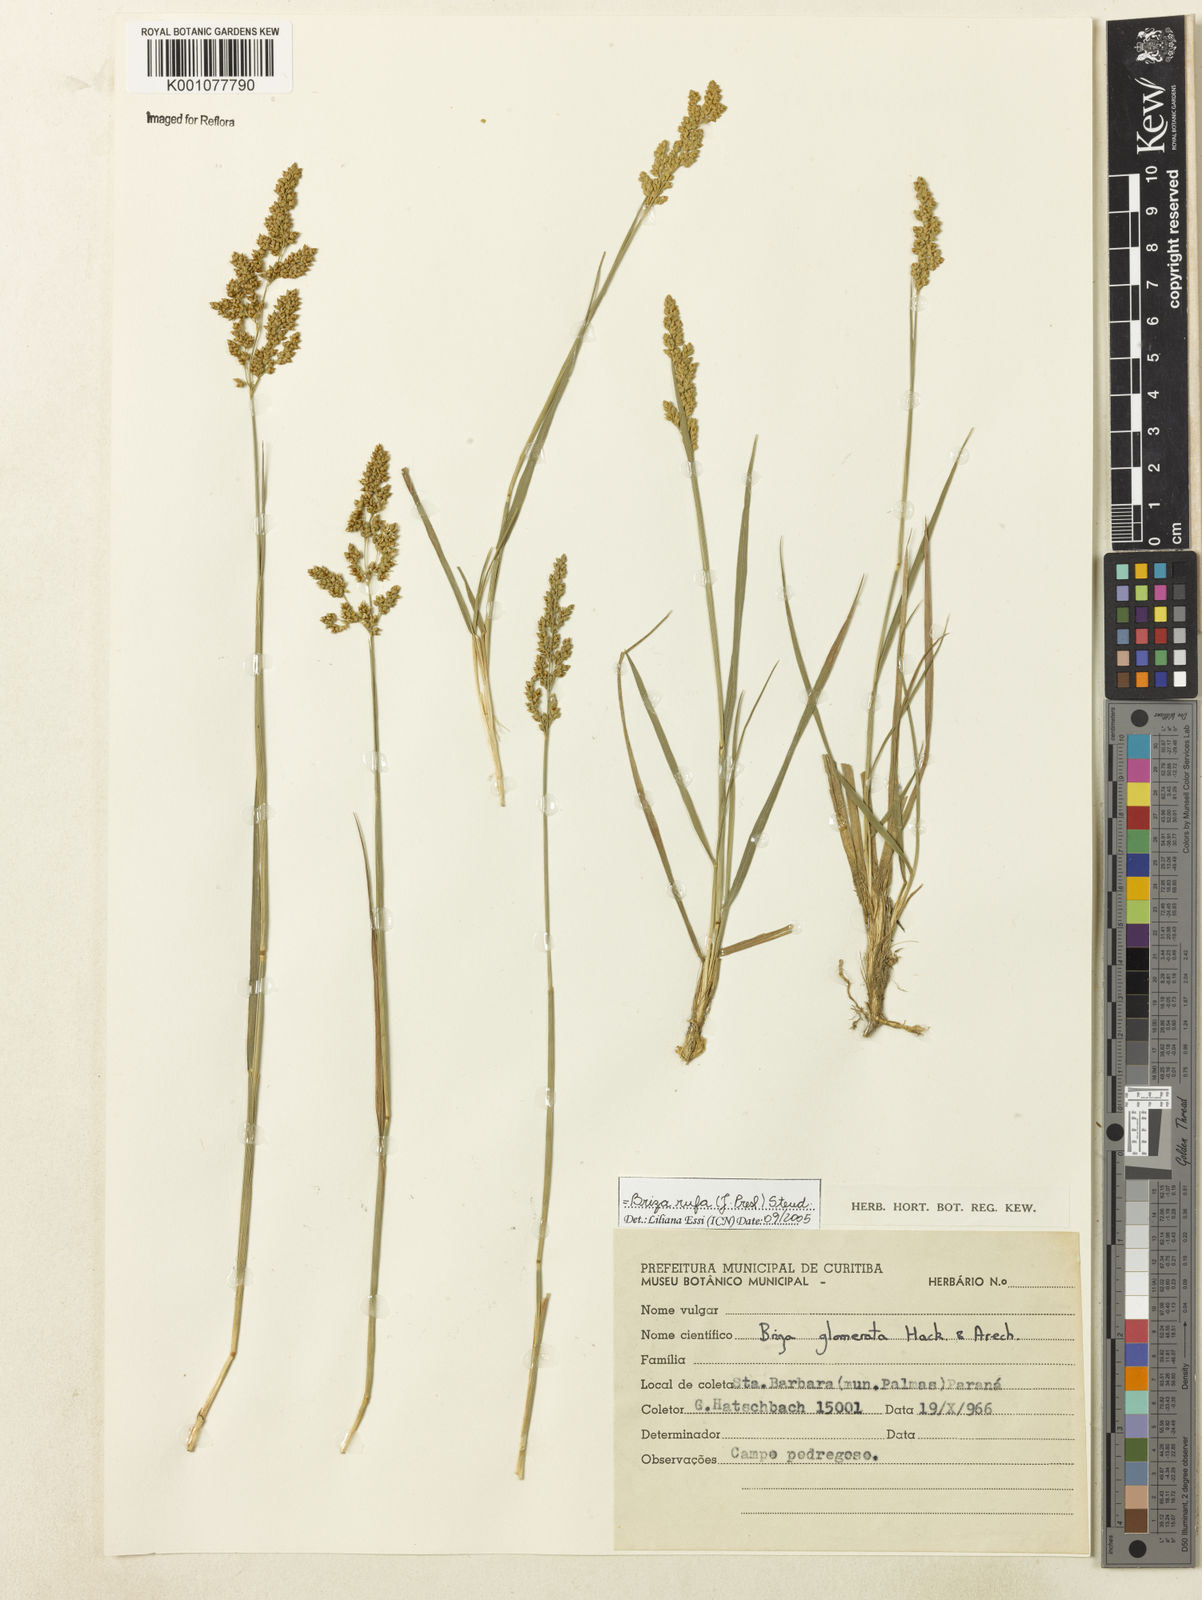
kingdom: Plantae
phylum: Tracheophyta
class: Liliopsida
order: Poales
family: Poaceae
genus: Lombardochloa
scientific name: Lombardochloa rufa
